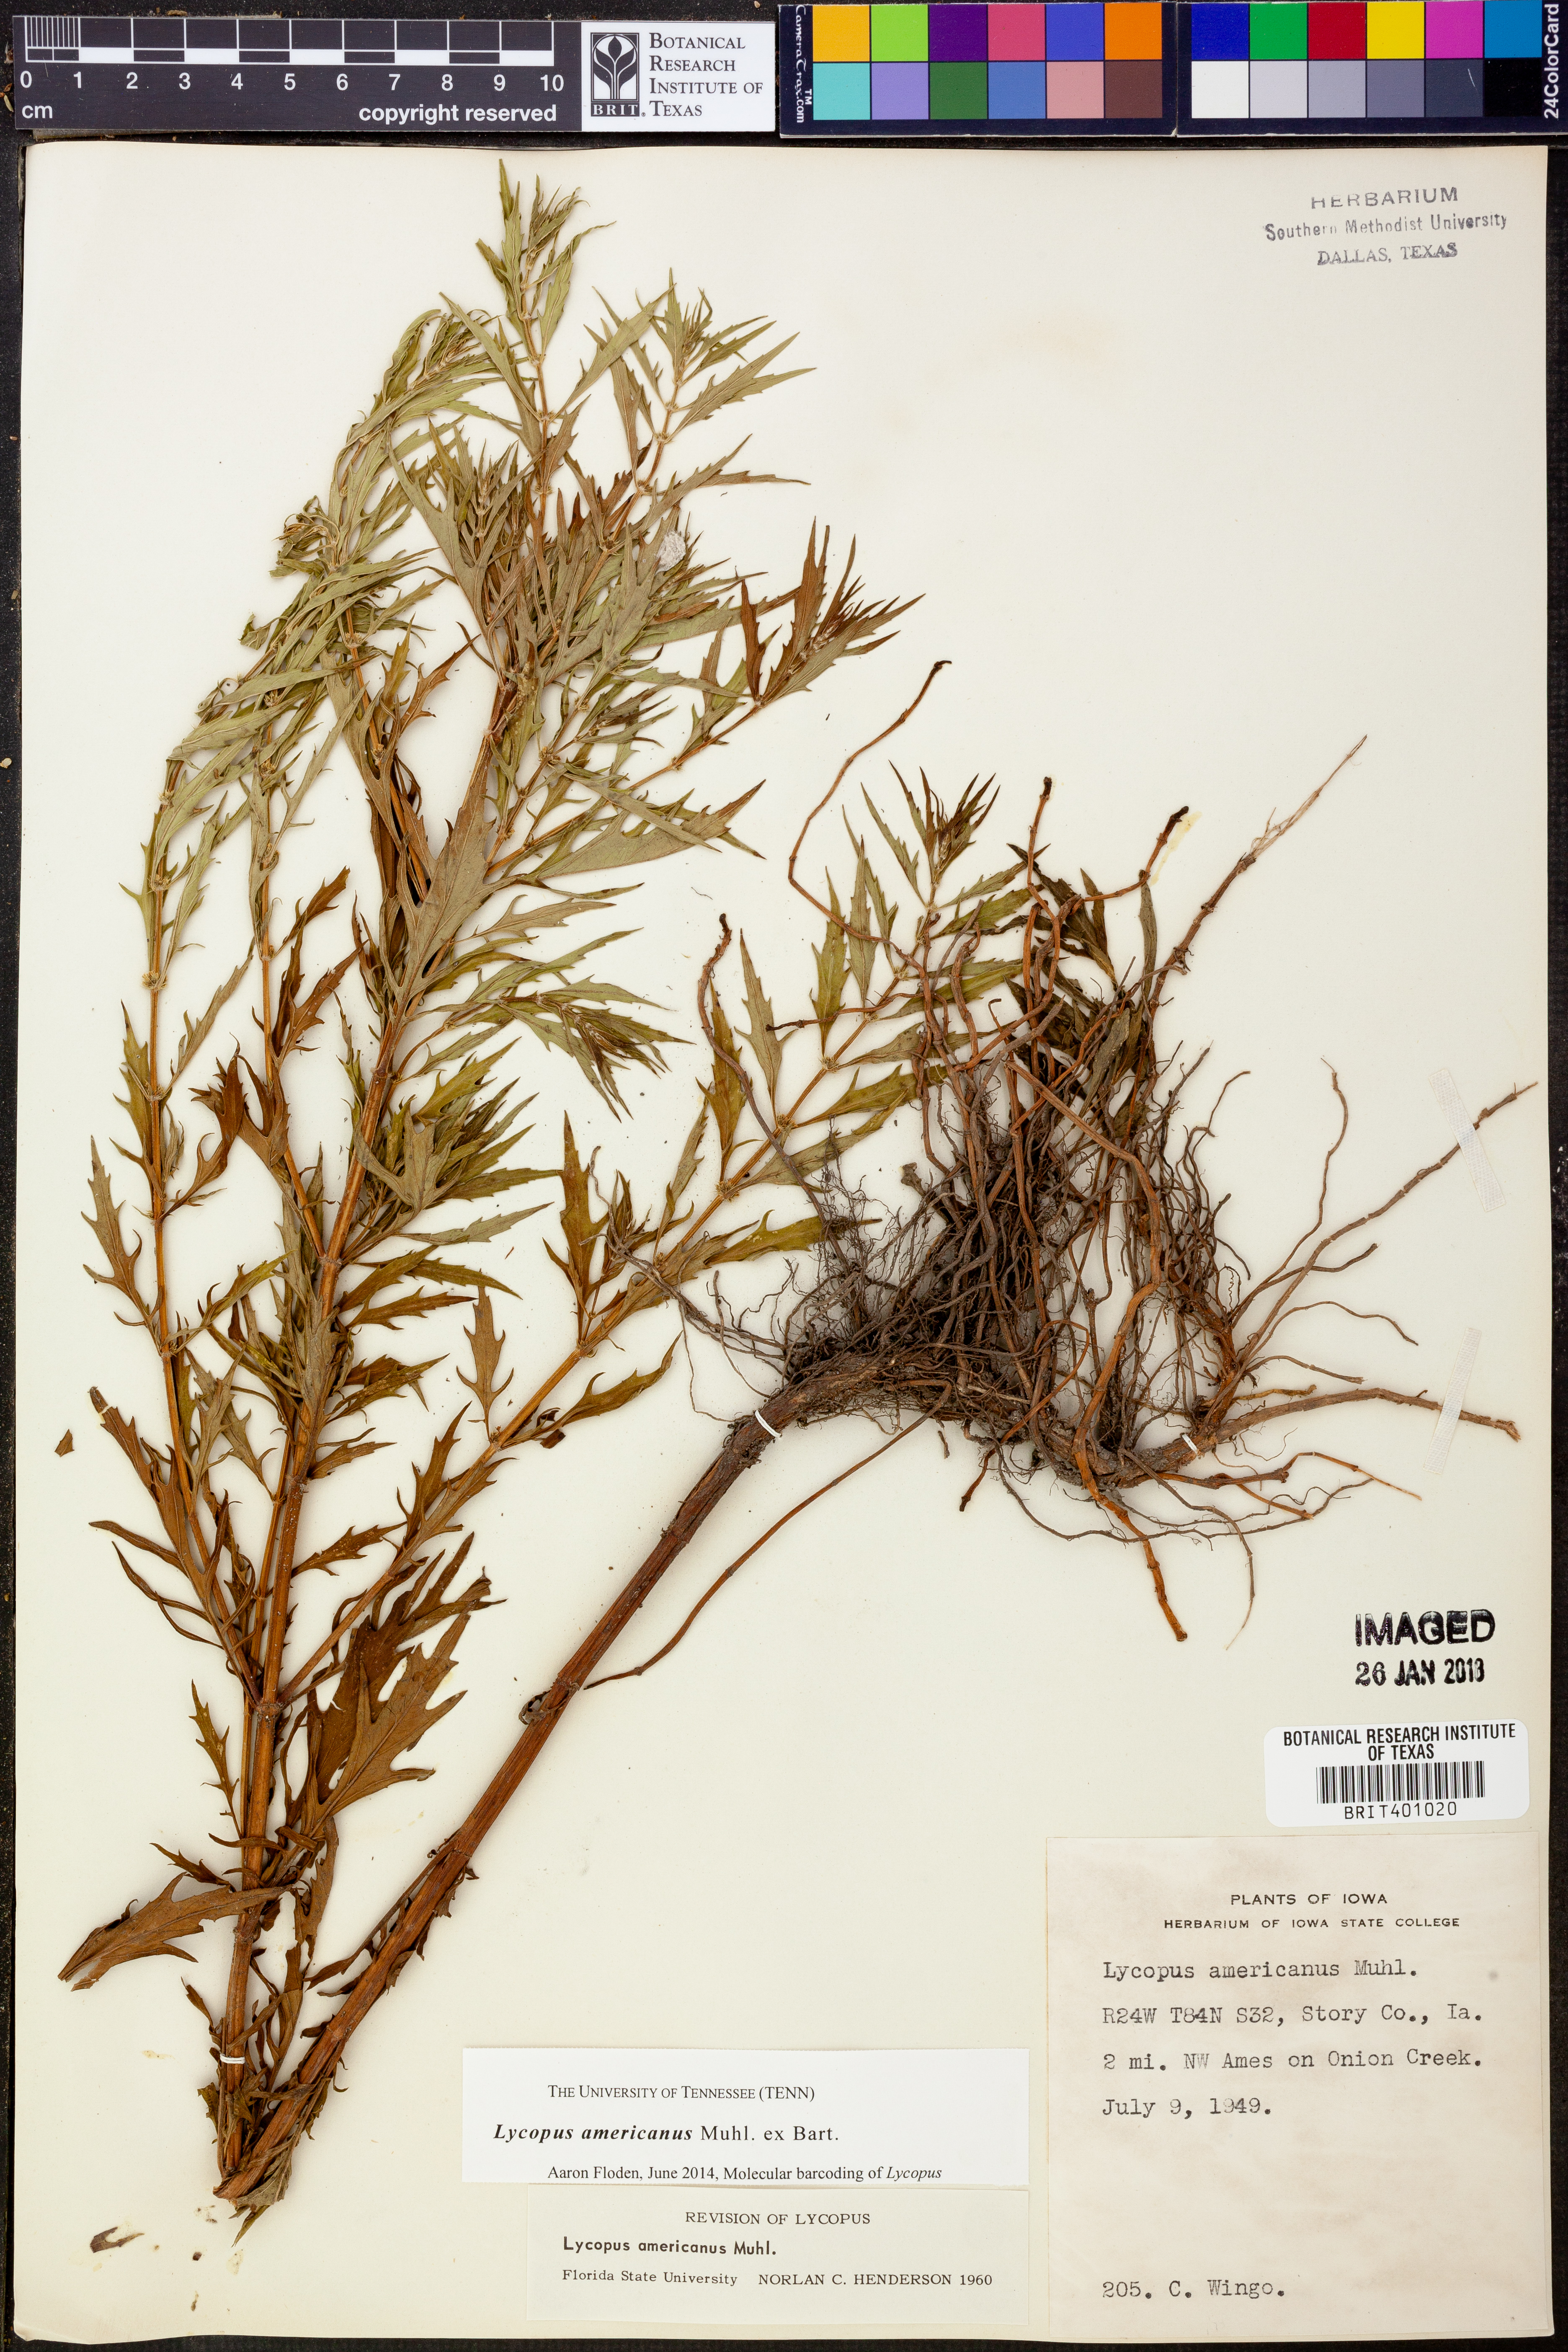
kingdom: Plantae
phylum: Tracheophyta
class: Magnoliopsida
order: Lamiales
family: Lamiaceae
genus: Lycopus
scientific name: Lycopus americanus
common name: American bugleweed
